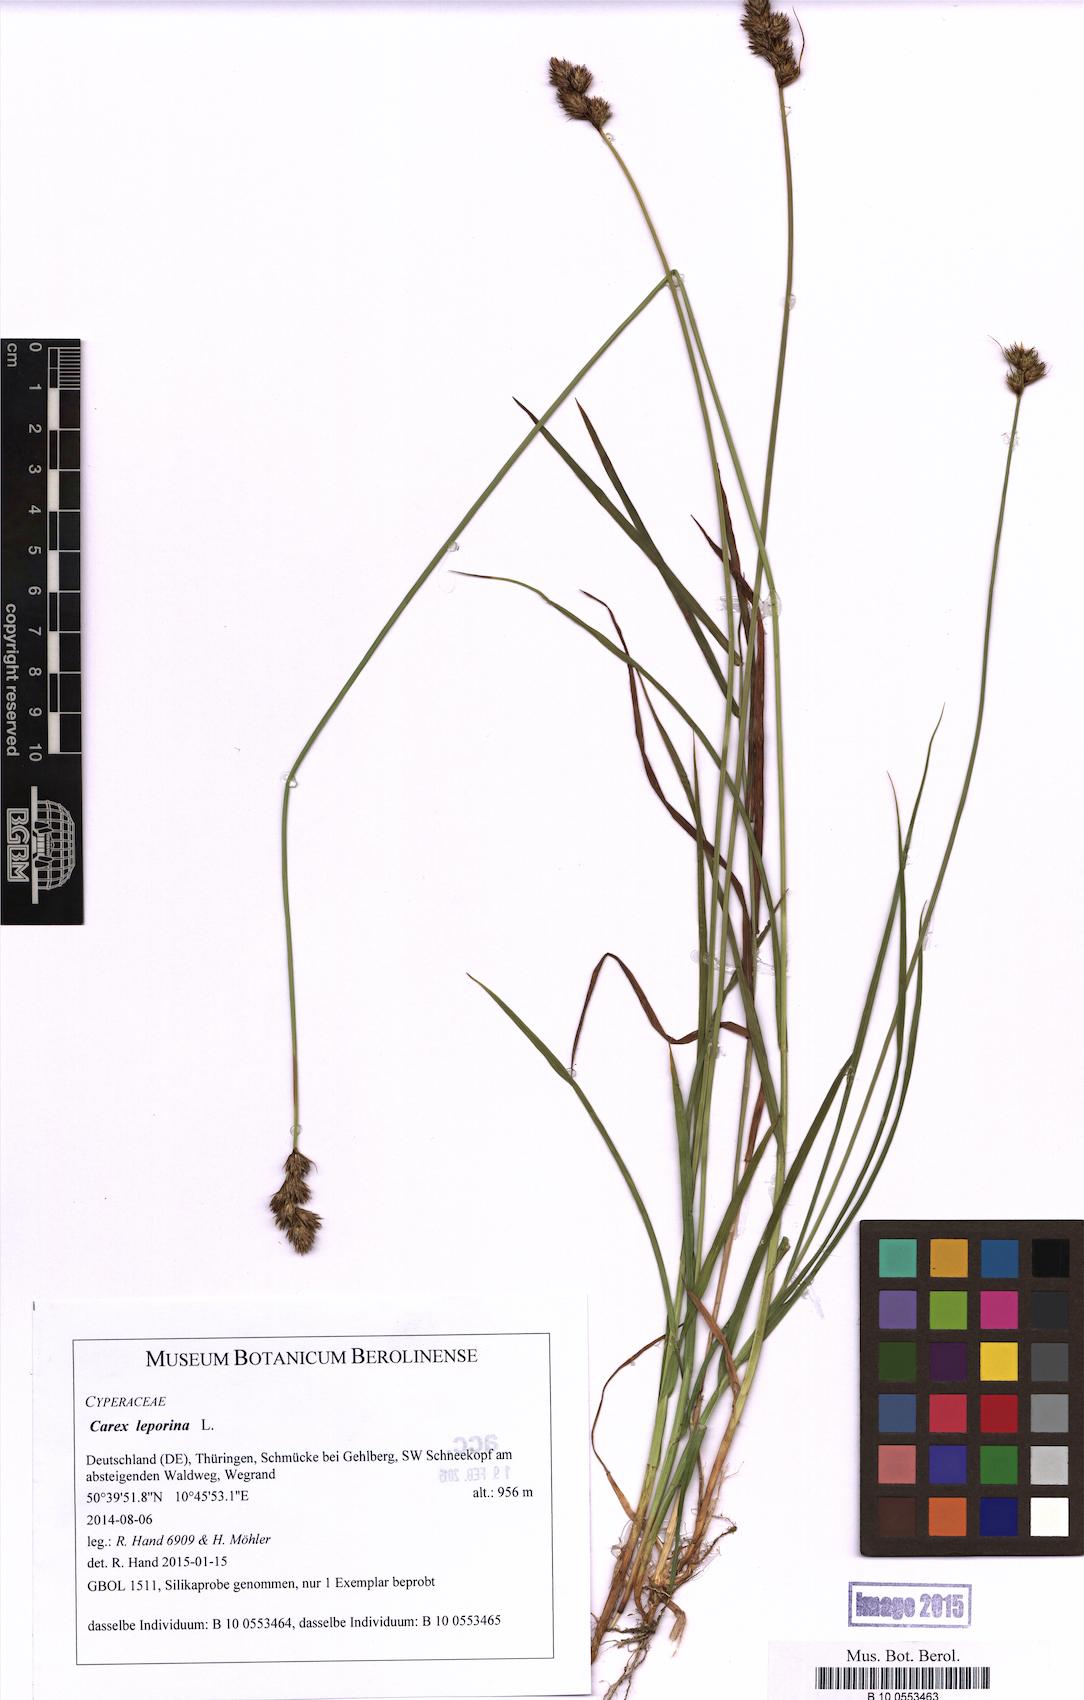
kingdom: Plantae
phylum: Tracheophyta
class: Liliopsida
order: Poales
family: Cyperaceae
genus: Carex
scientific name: Carex leporina
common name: Oval sedge
